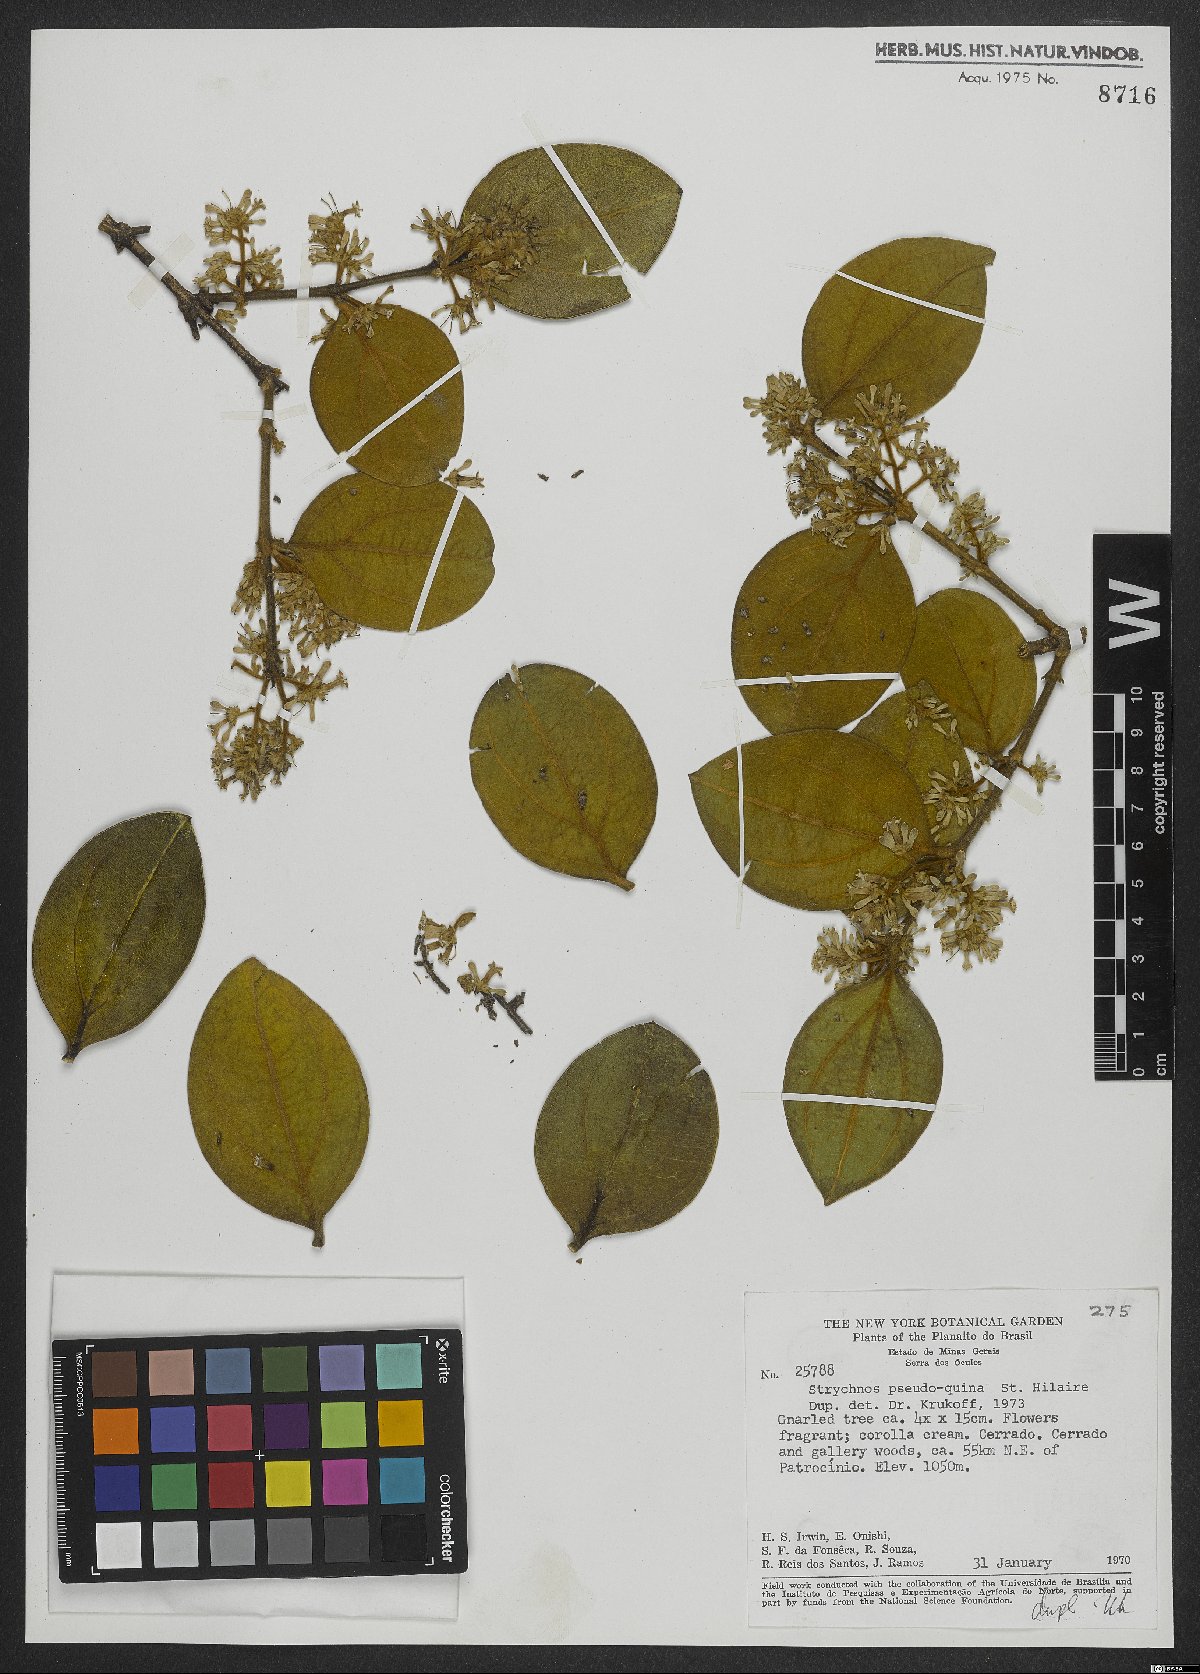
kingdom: Plantae
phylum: Tracheophyta
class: Magnoliopsida
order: Gentianales
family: Loganiaceae
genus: Strychnos
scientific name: Strychnos pseudoquina
